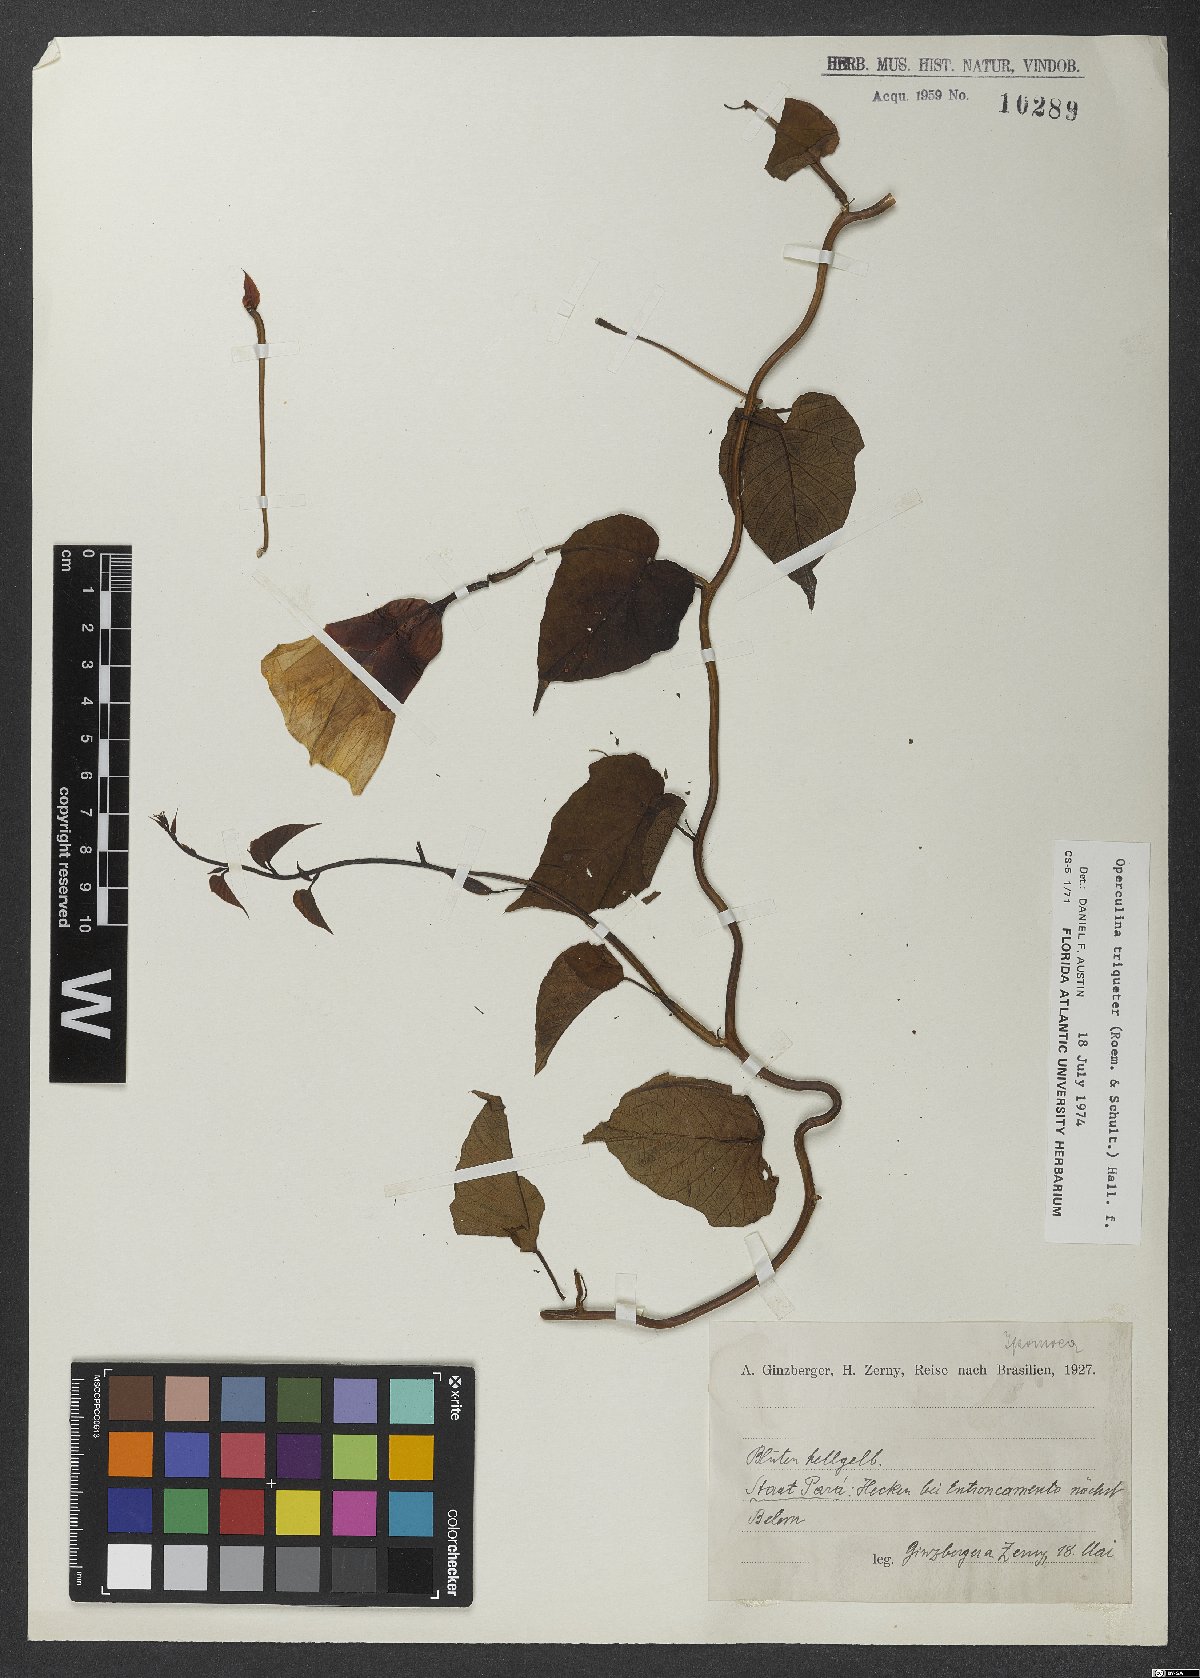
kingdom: Plantae
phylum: Tracheophyta
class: Magnoliopsida
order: Solanales
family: Convolvulaceae
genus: Operculina
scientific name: Operculina turpethum
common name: Transparent wood-rose
